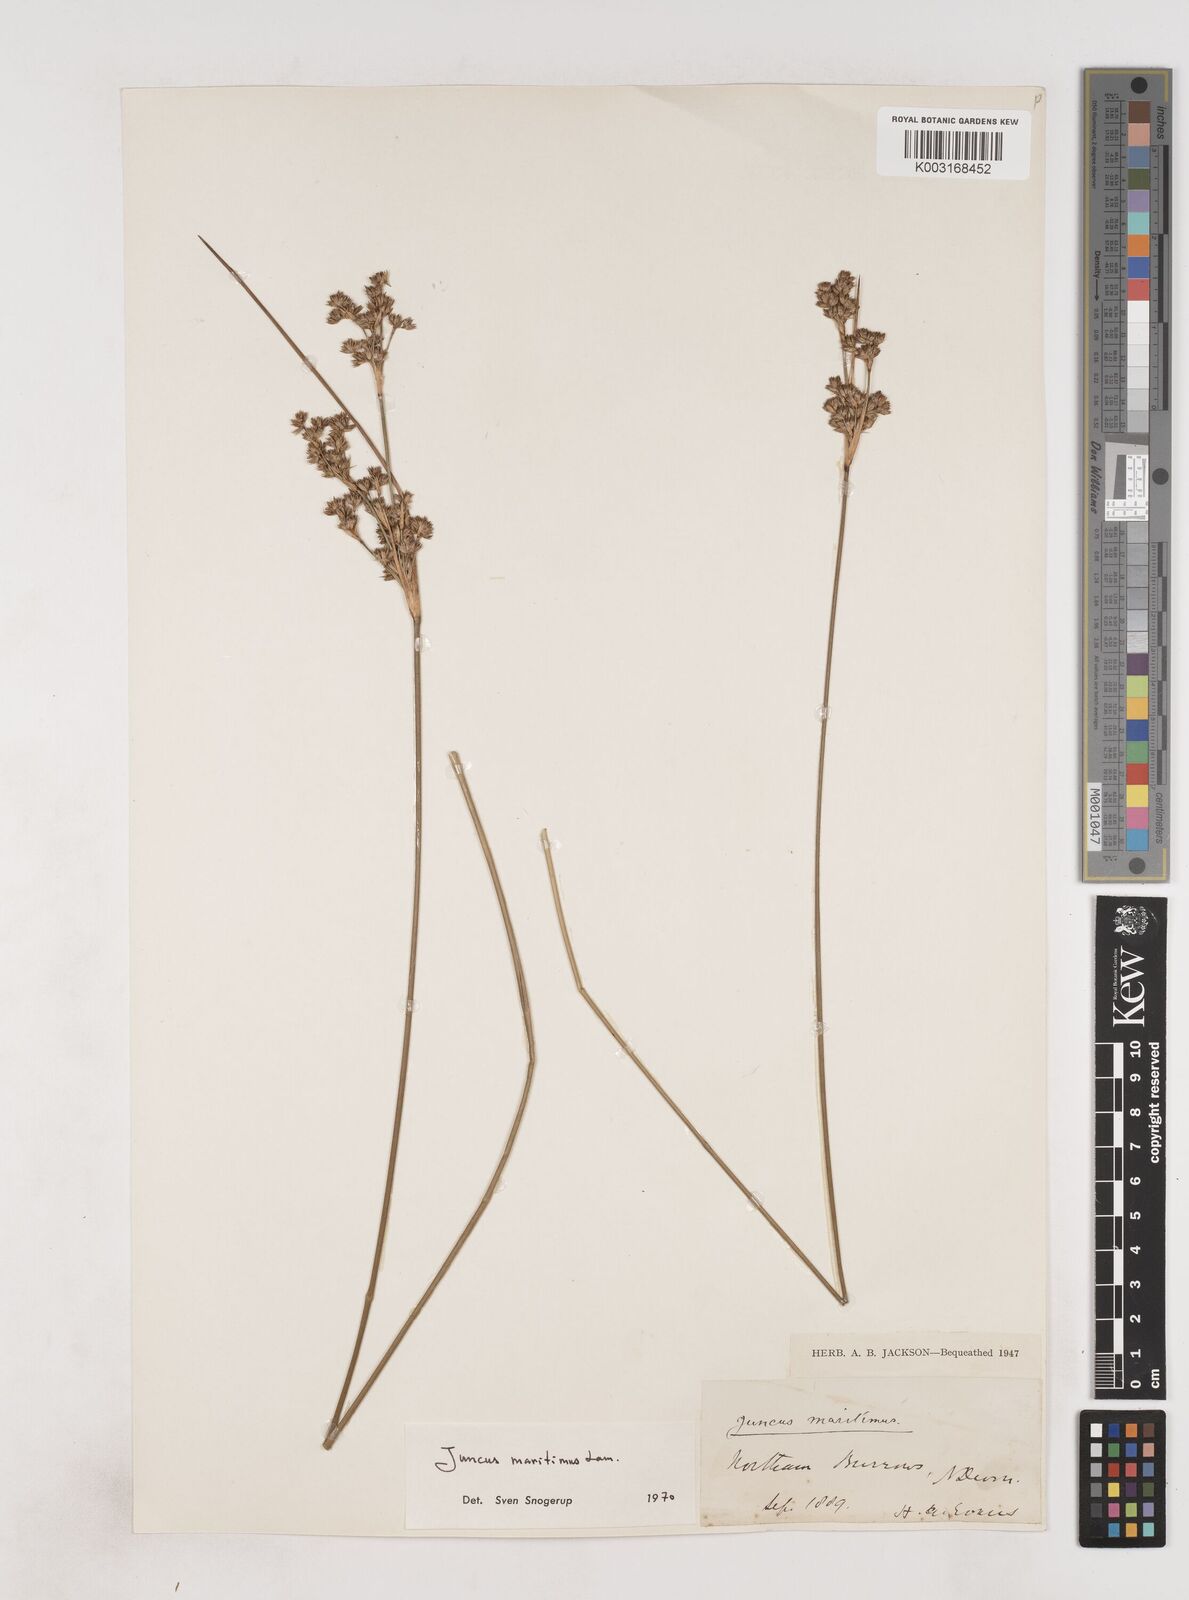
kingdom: Plantae
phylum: Tracheophyta
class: Liliopsida
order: Poales
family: Juncaceae
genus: Juncus
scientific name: Juncus maritimus
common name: Sea rush
